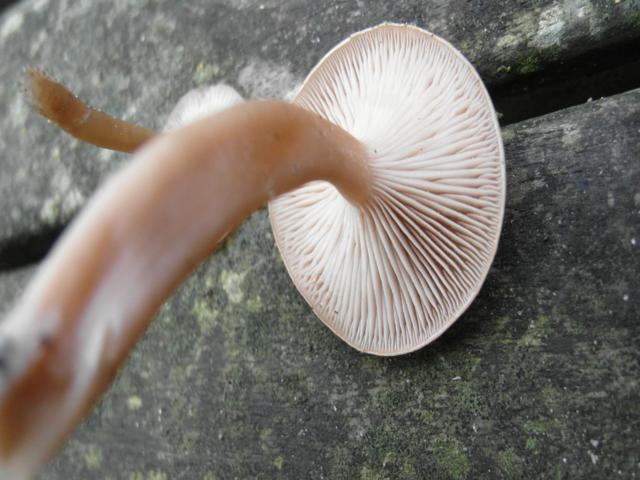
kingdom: Fungi
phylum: Basidiomycota
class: Agaricomycetes
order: Agaricales
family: Tricholomataceae
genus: Clitocybe
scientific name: Clitocybe diatreta
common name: kødfarvet tragthat
